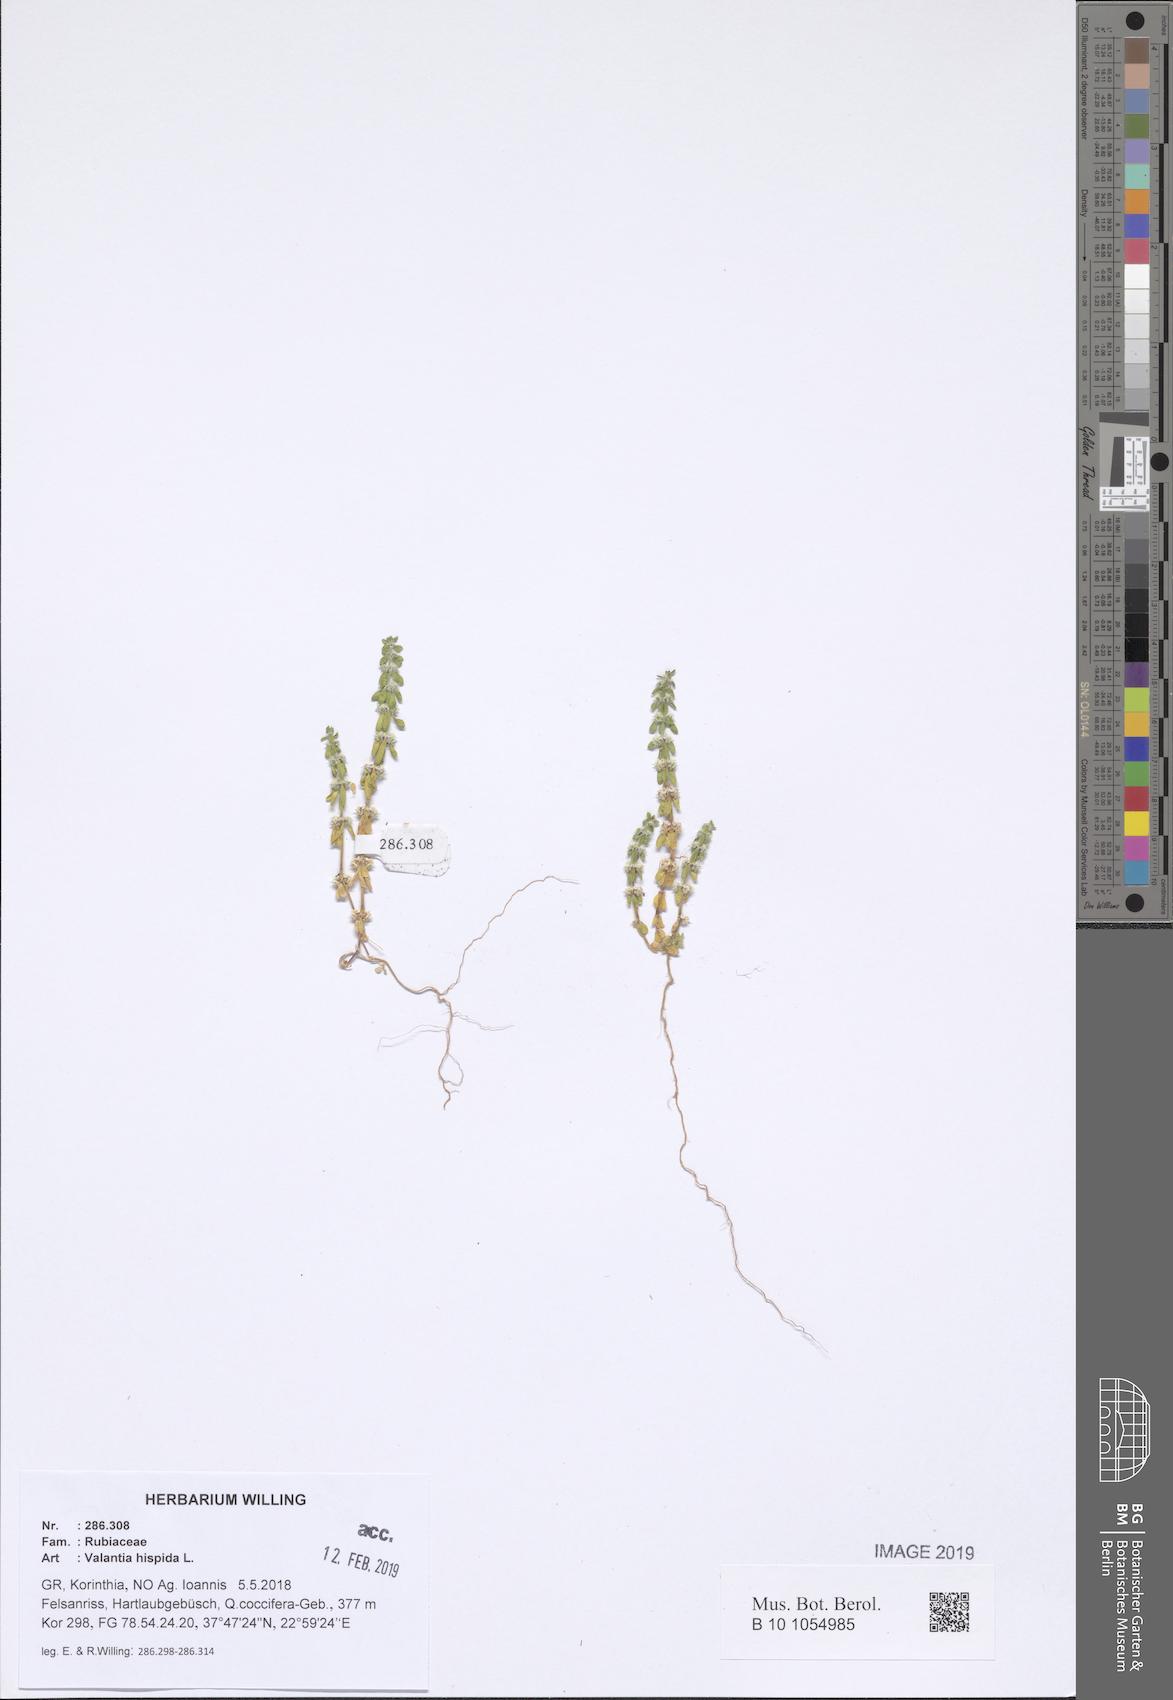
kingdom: Plantae
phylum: Tracheophyta
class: Magnoliopsida
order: Gentianales
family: Rubiaceae
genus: Valantia
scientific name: Valantia hispida
